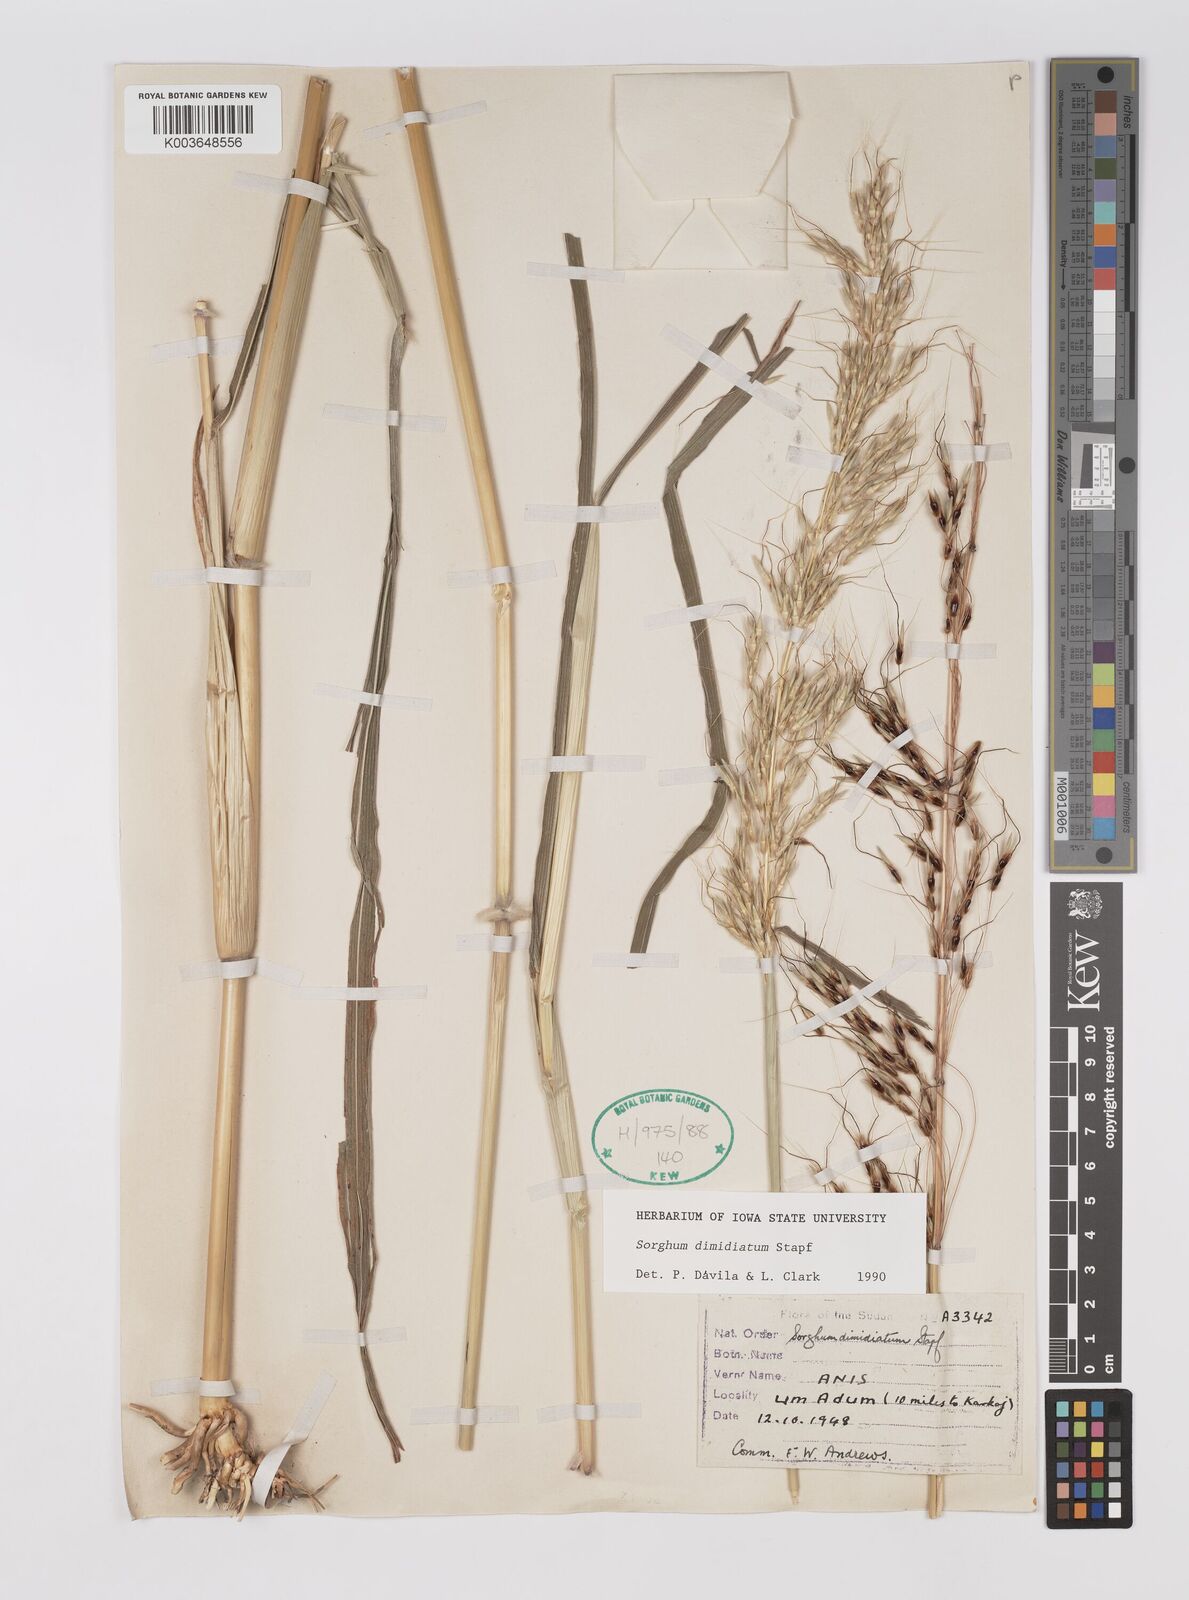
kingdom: Plantae
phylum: Tracheophyta
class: Liliopsida
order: Poales
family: Poaceae
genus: Sarga
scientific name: Sarga purpureosericea
